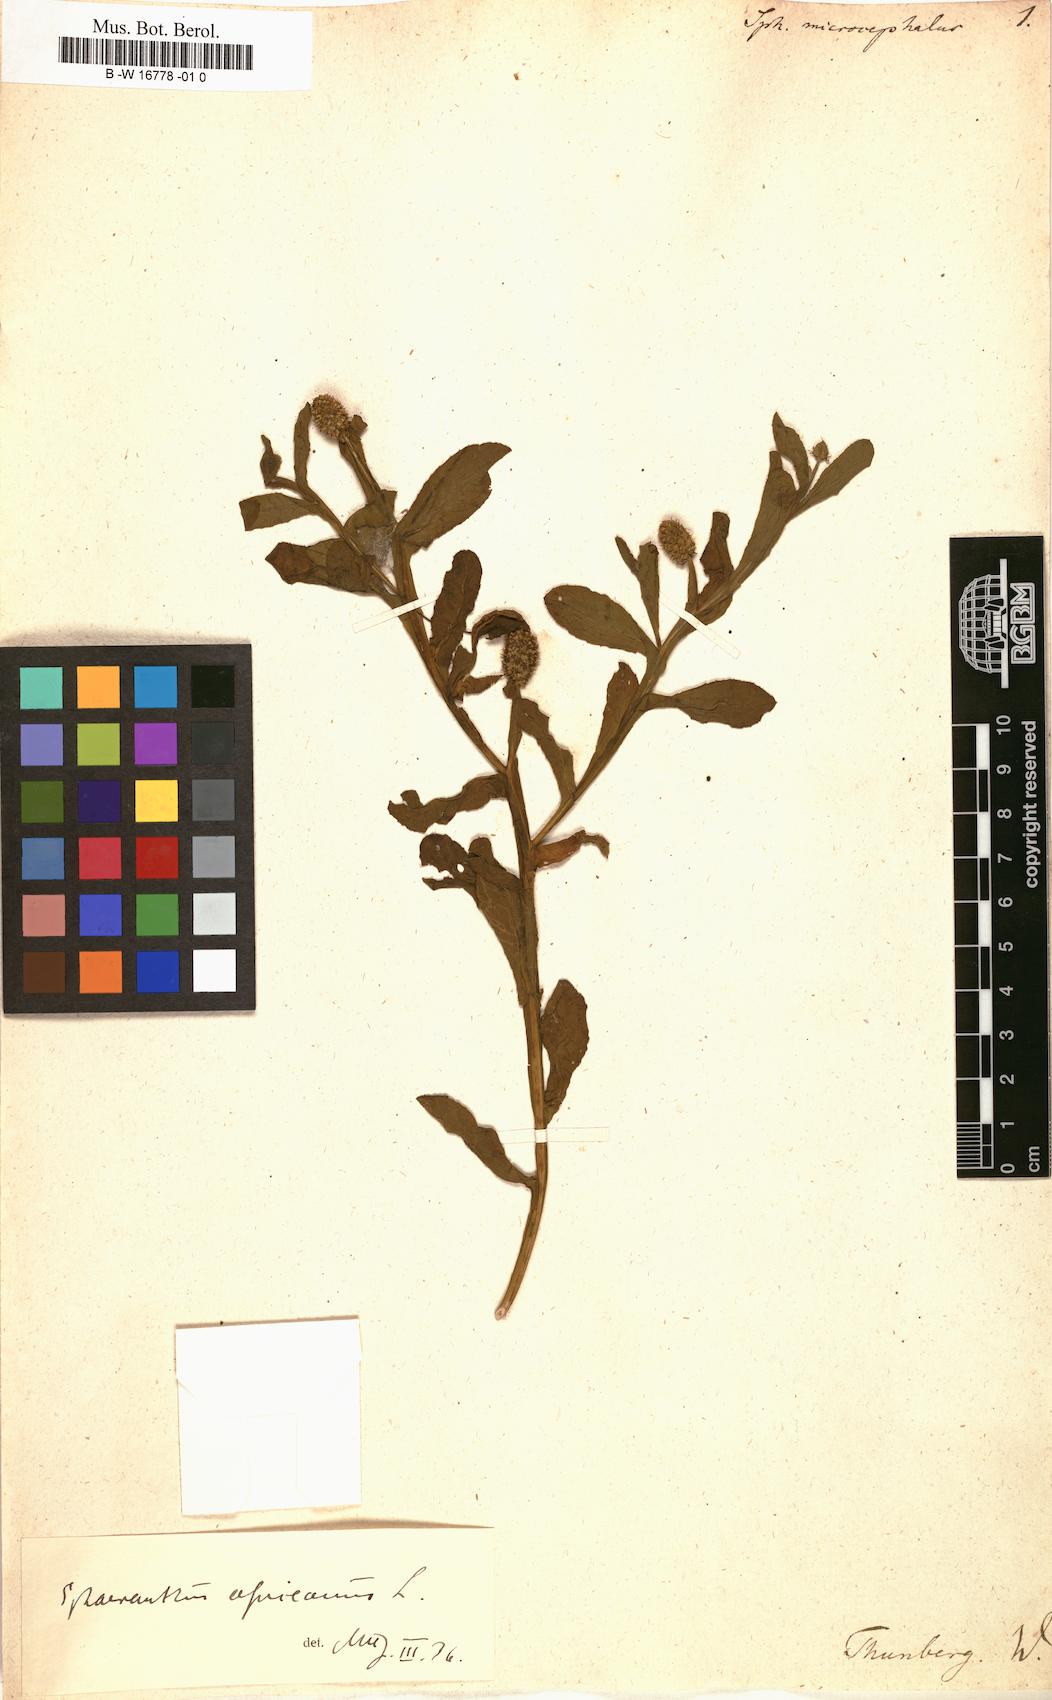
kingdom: Plantae
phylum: Tracheophyta
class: Magnoliopsida
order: Asterales
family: Asteraceae
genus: Sphaeranthus
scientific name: Sphaeranthus africanus
